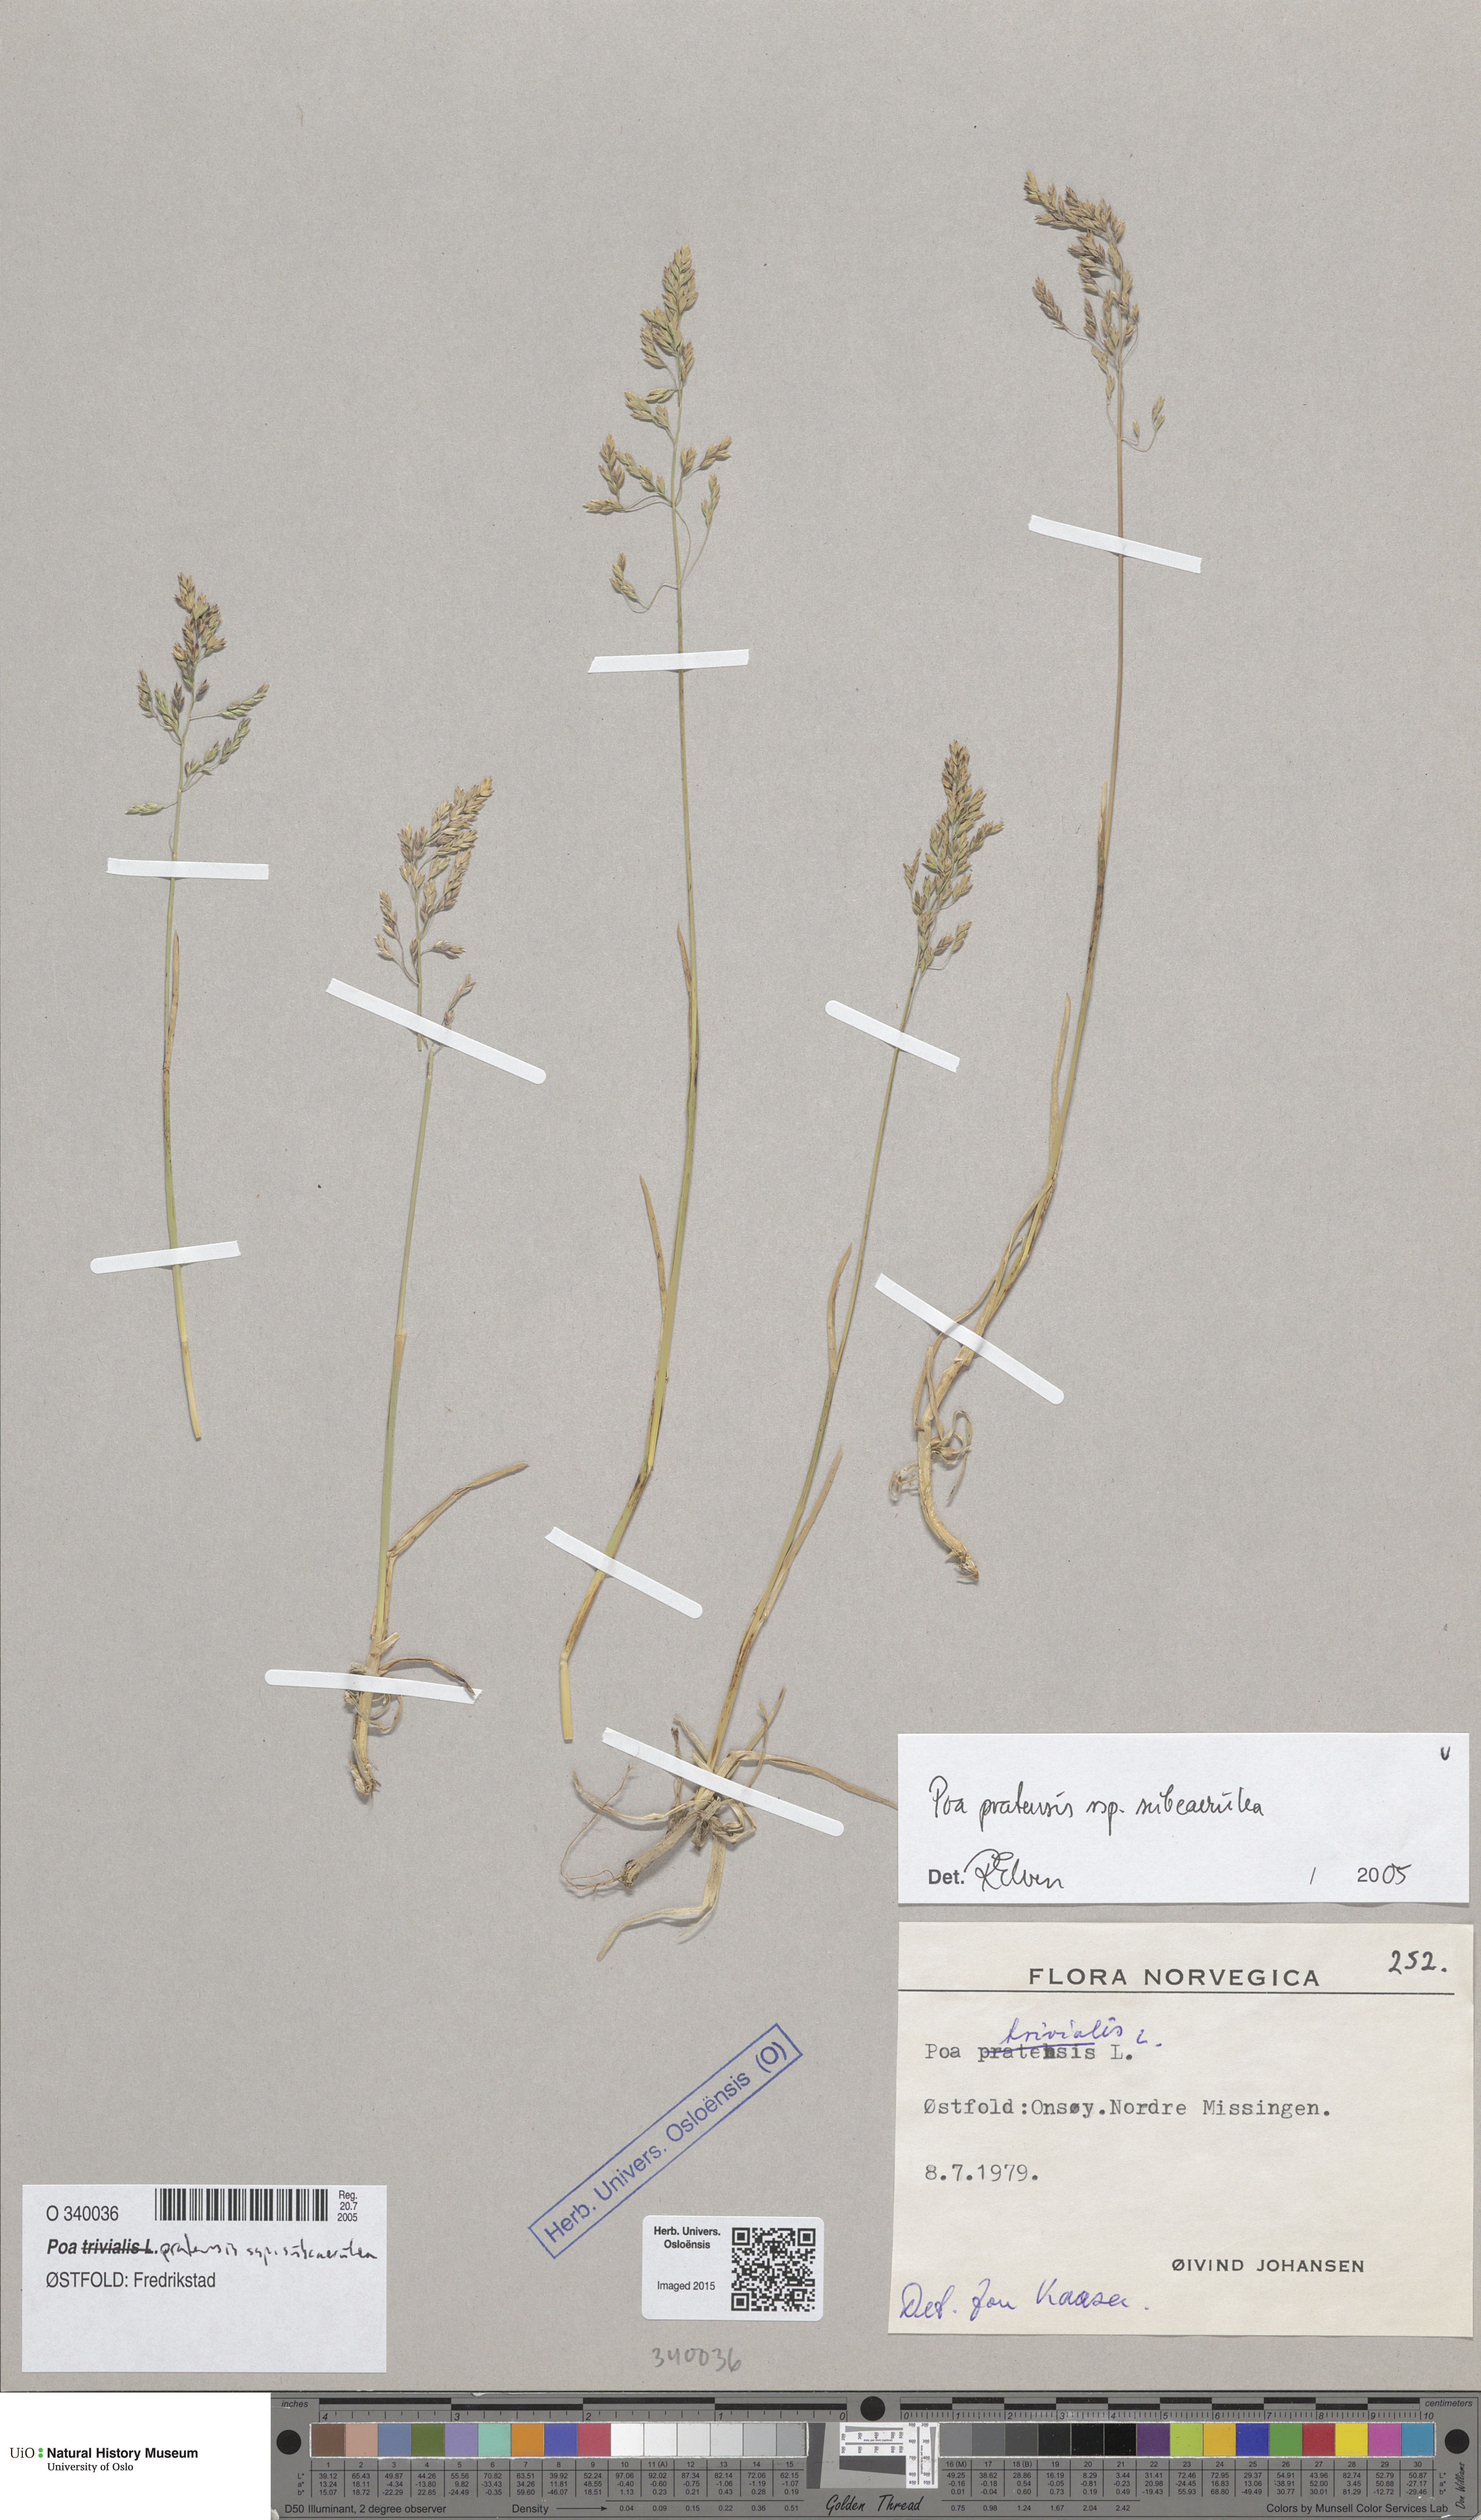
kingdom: Plantae
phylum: Tracheophyta
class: Liliopsida
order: Poales
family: Poaceae
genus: Poa
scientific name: Poa humilis
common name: Spreading meadow-grass
